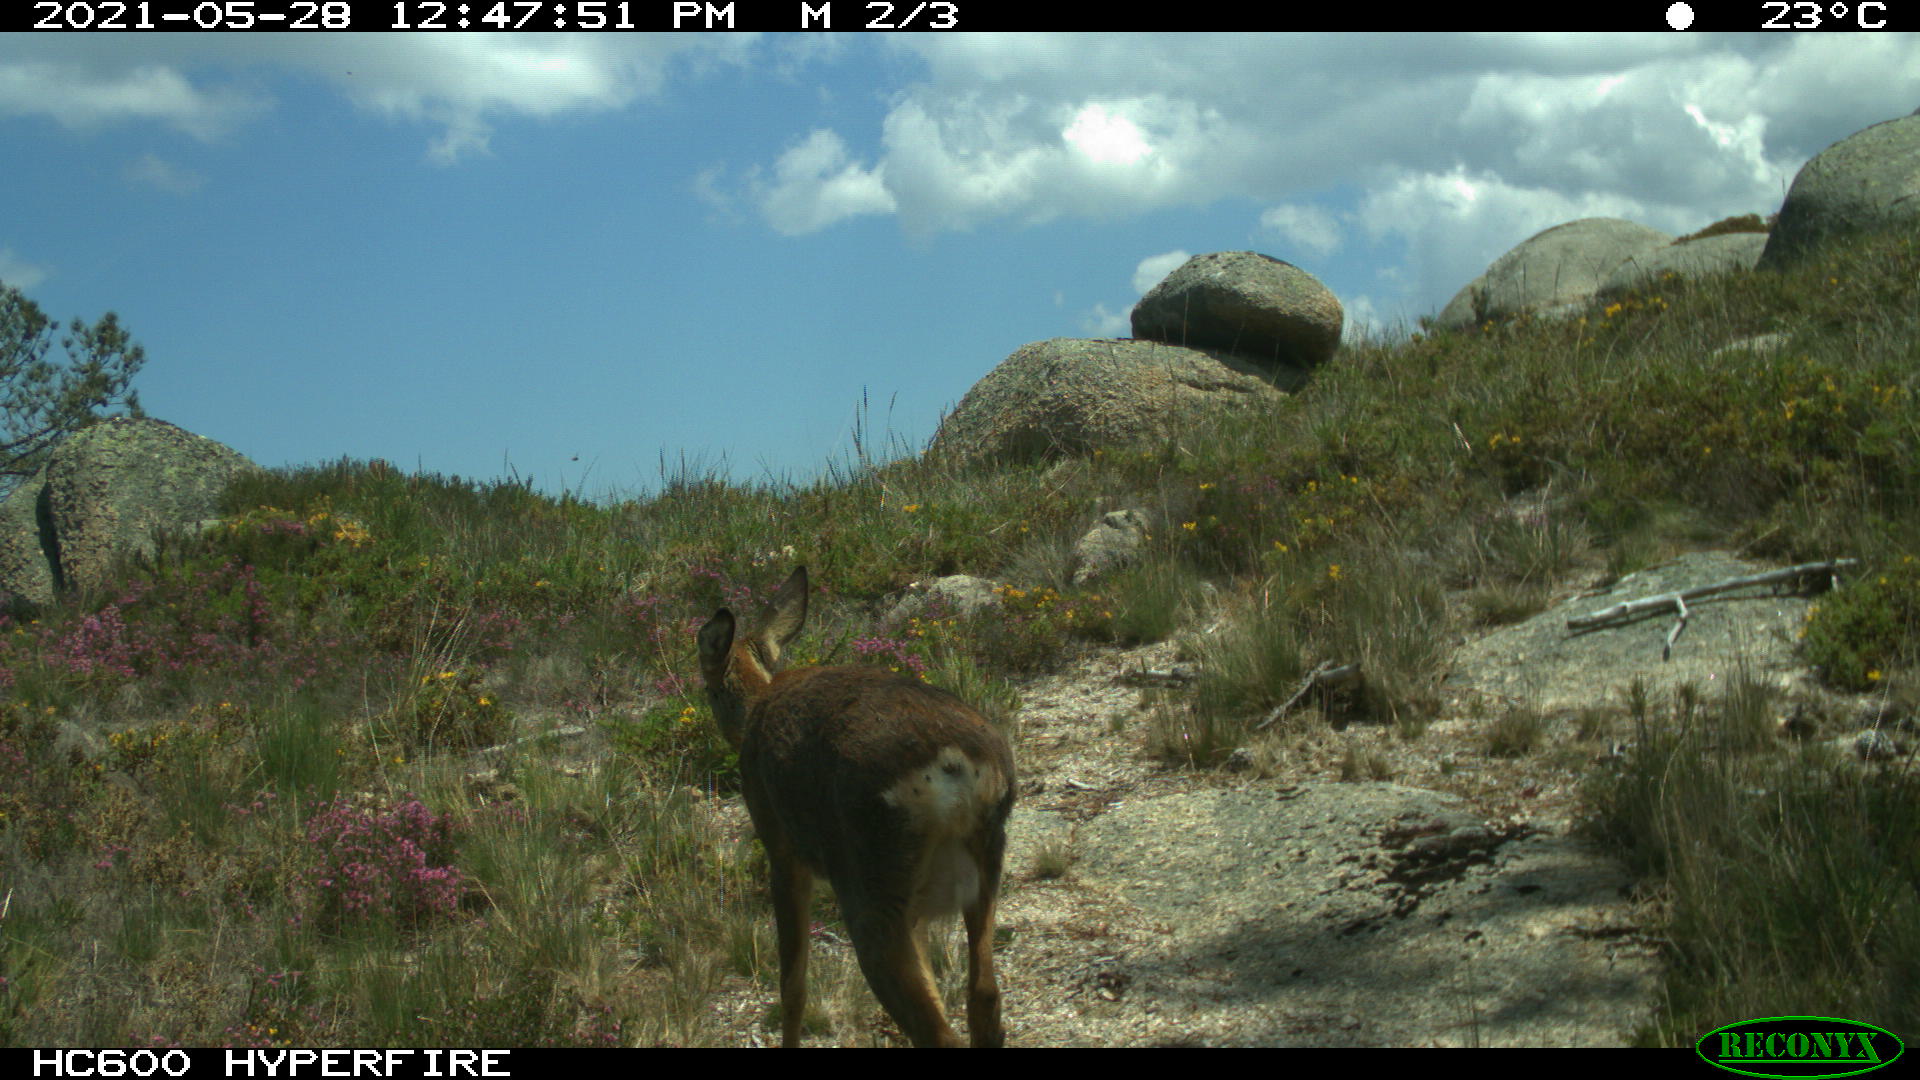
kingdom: Animalia
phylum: Chordata
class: Mammalia
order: Artiodactyla
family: Cervidae
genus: Capreolus
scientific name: Capreolus capreolus
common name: Western roe deer
